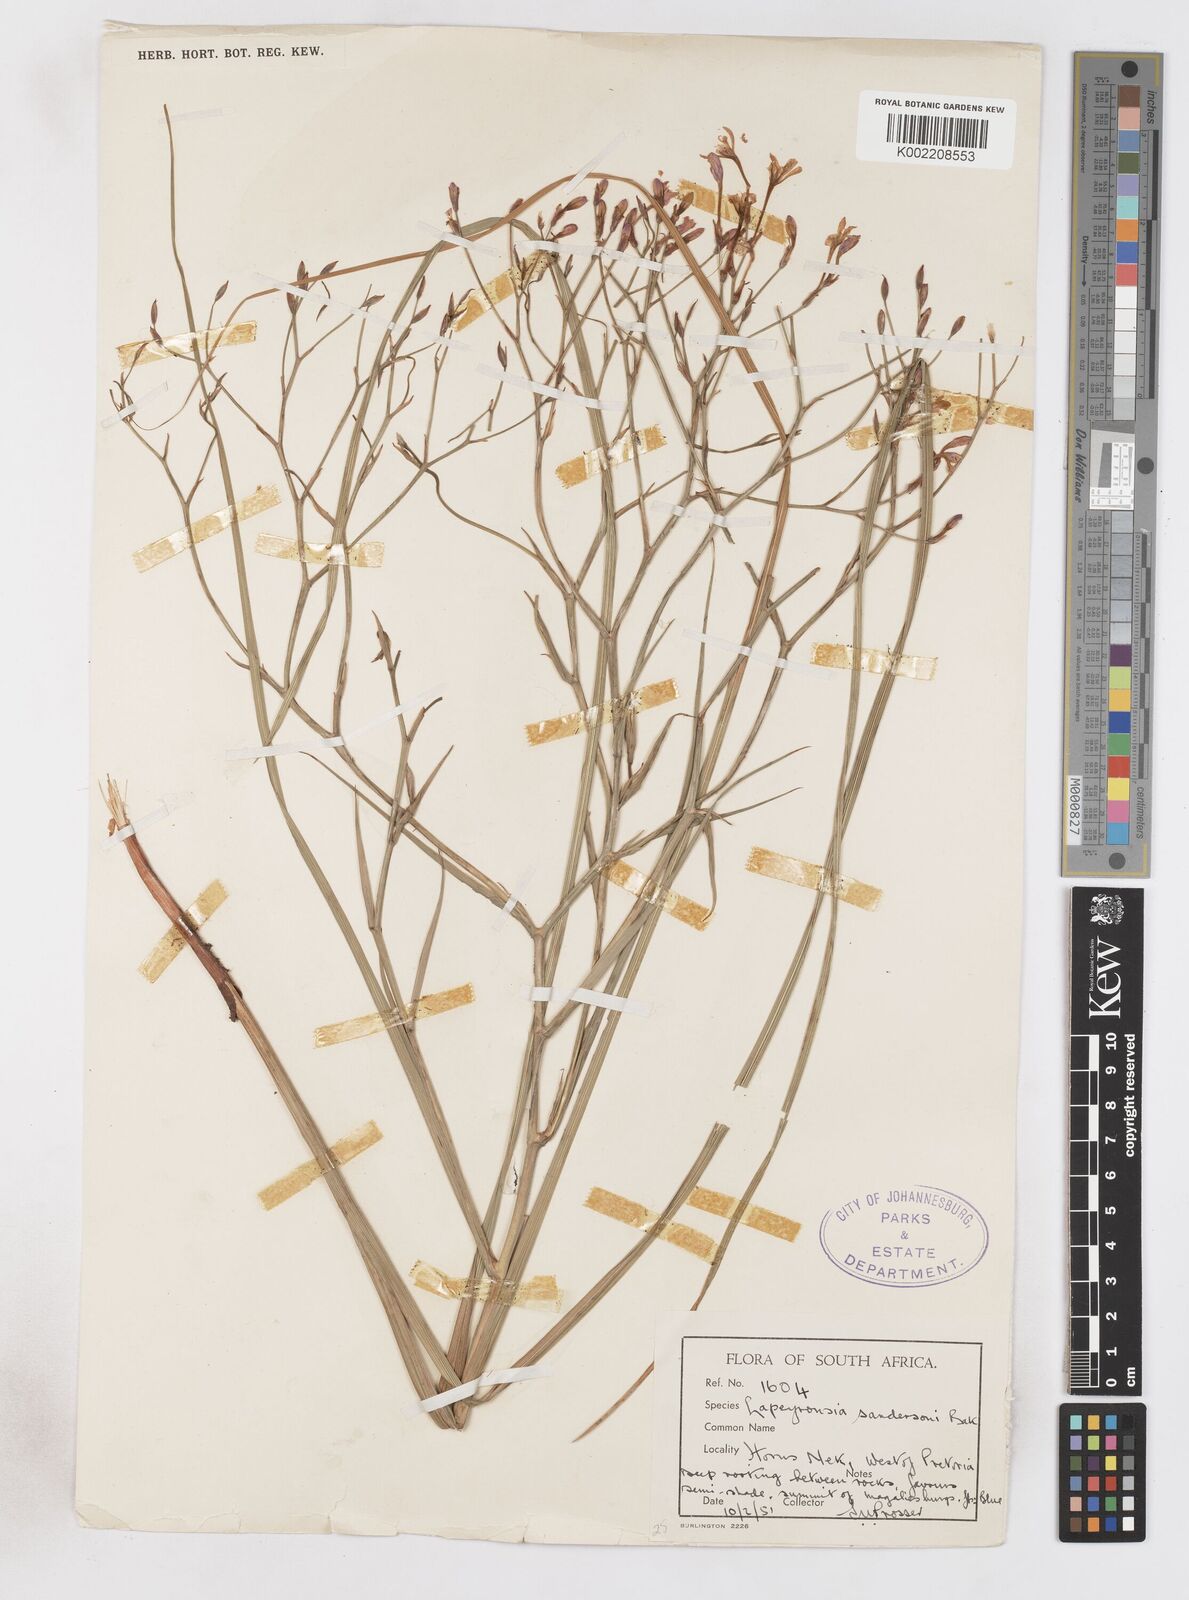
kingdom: Plantae
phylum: Tracheophyta
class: Liliopsida
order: Asparagales
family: Iridaceae
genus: Afrosolen
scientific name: Afrosolen sandersonii
